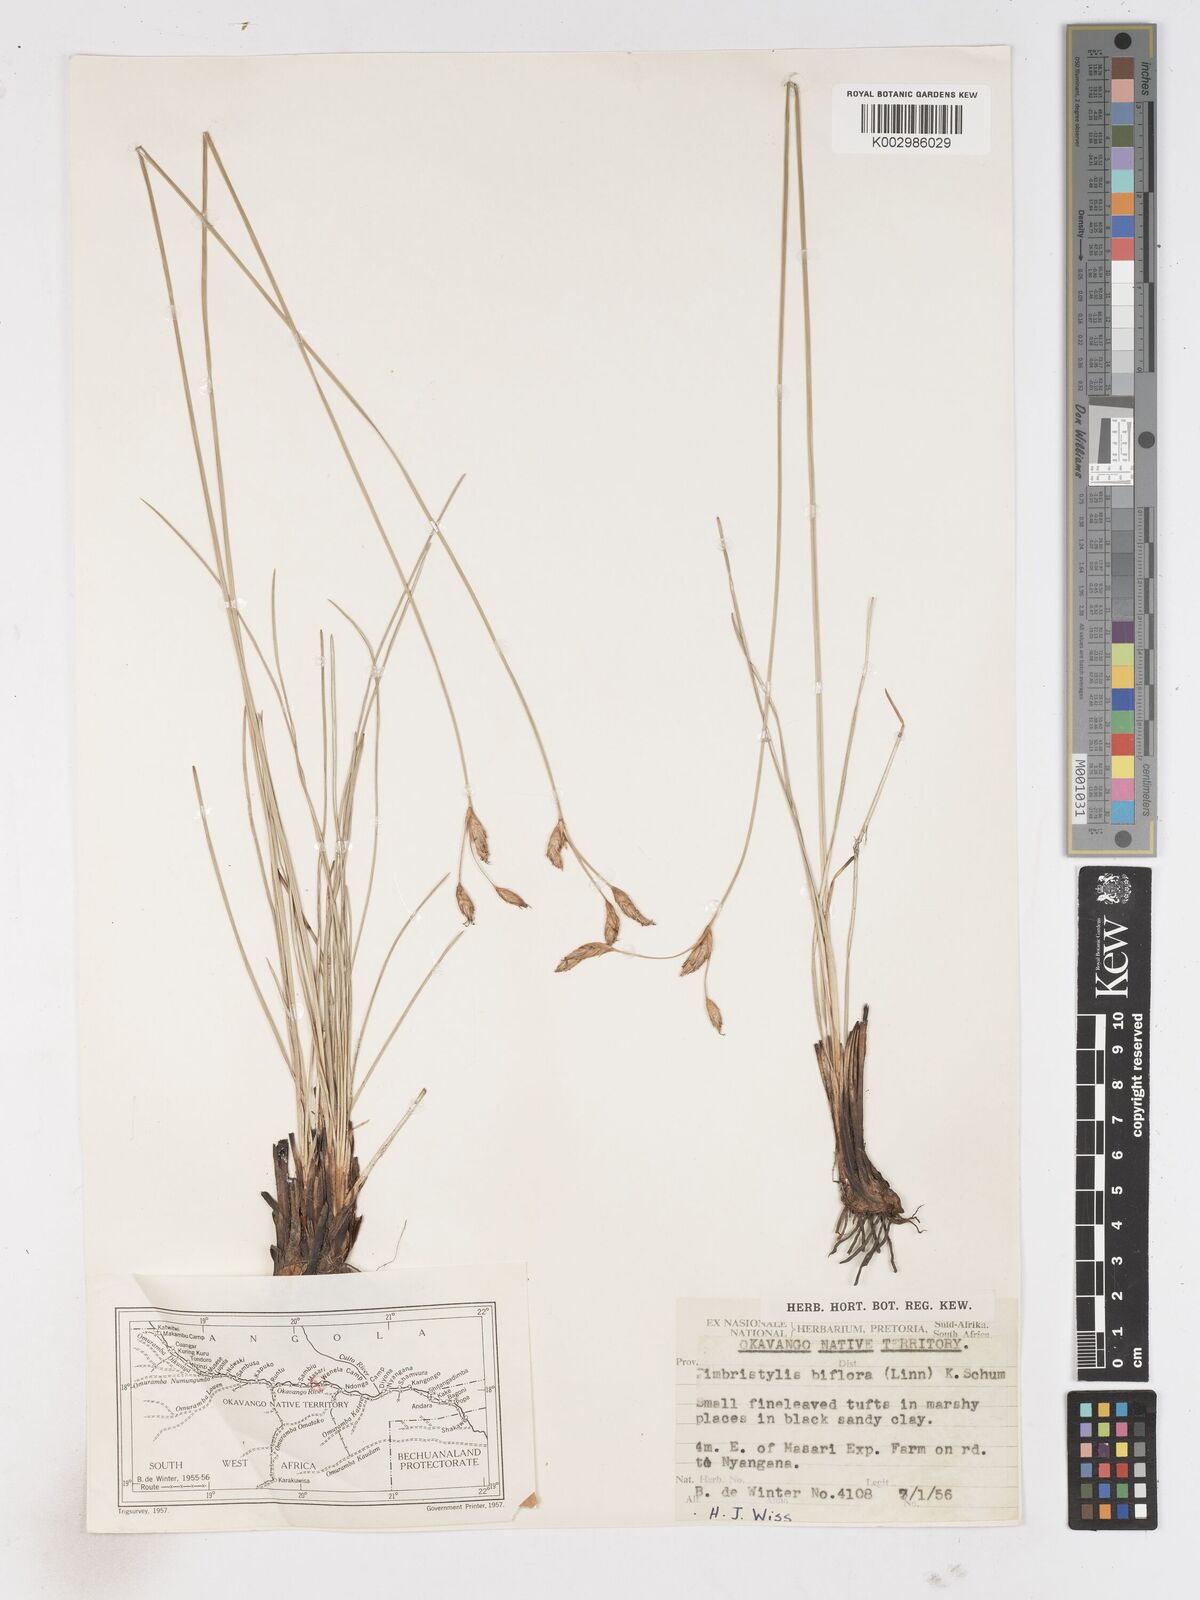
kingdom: Plantae
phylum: Tracheophyta
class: Liliopsida
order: Poales
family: Cyperaceae
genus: Abildgaardia
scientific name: Abildgaardia triflora
